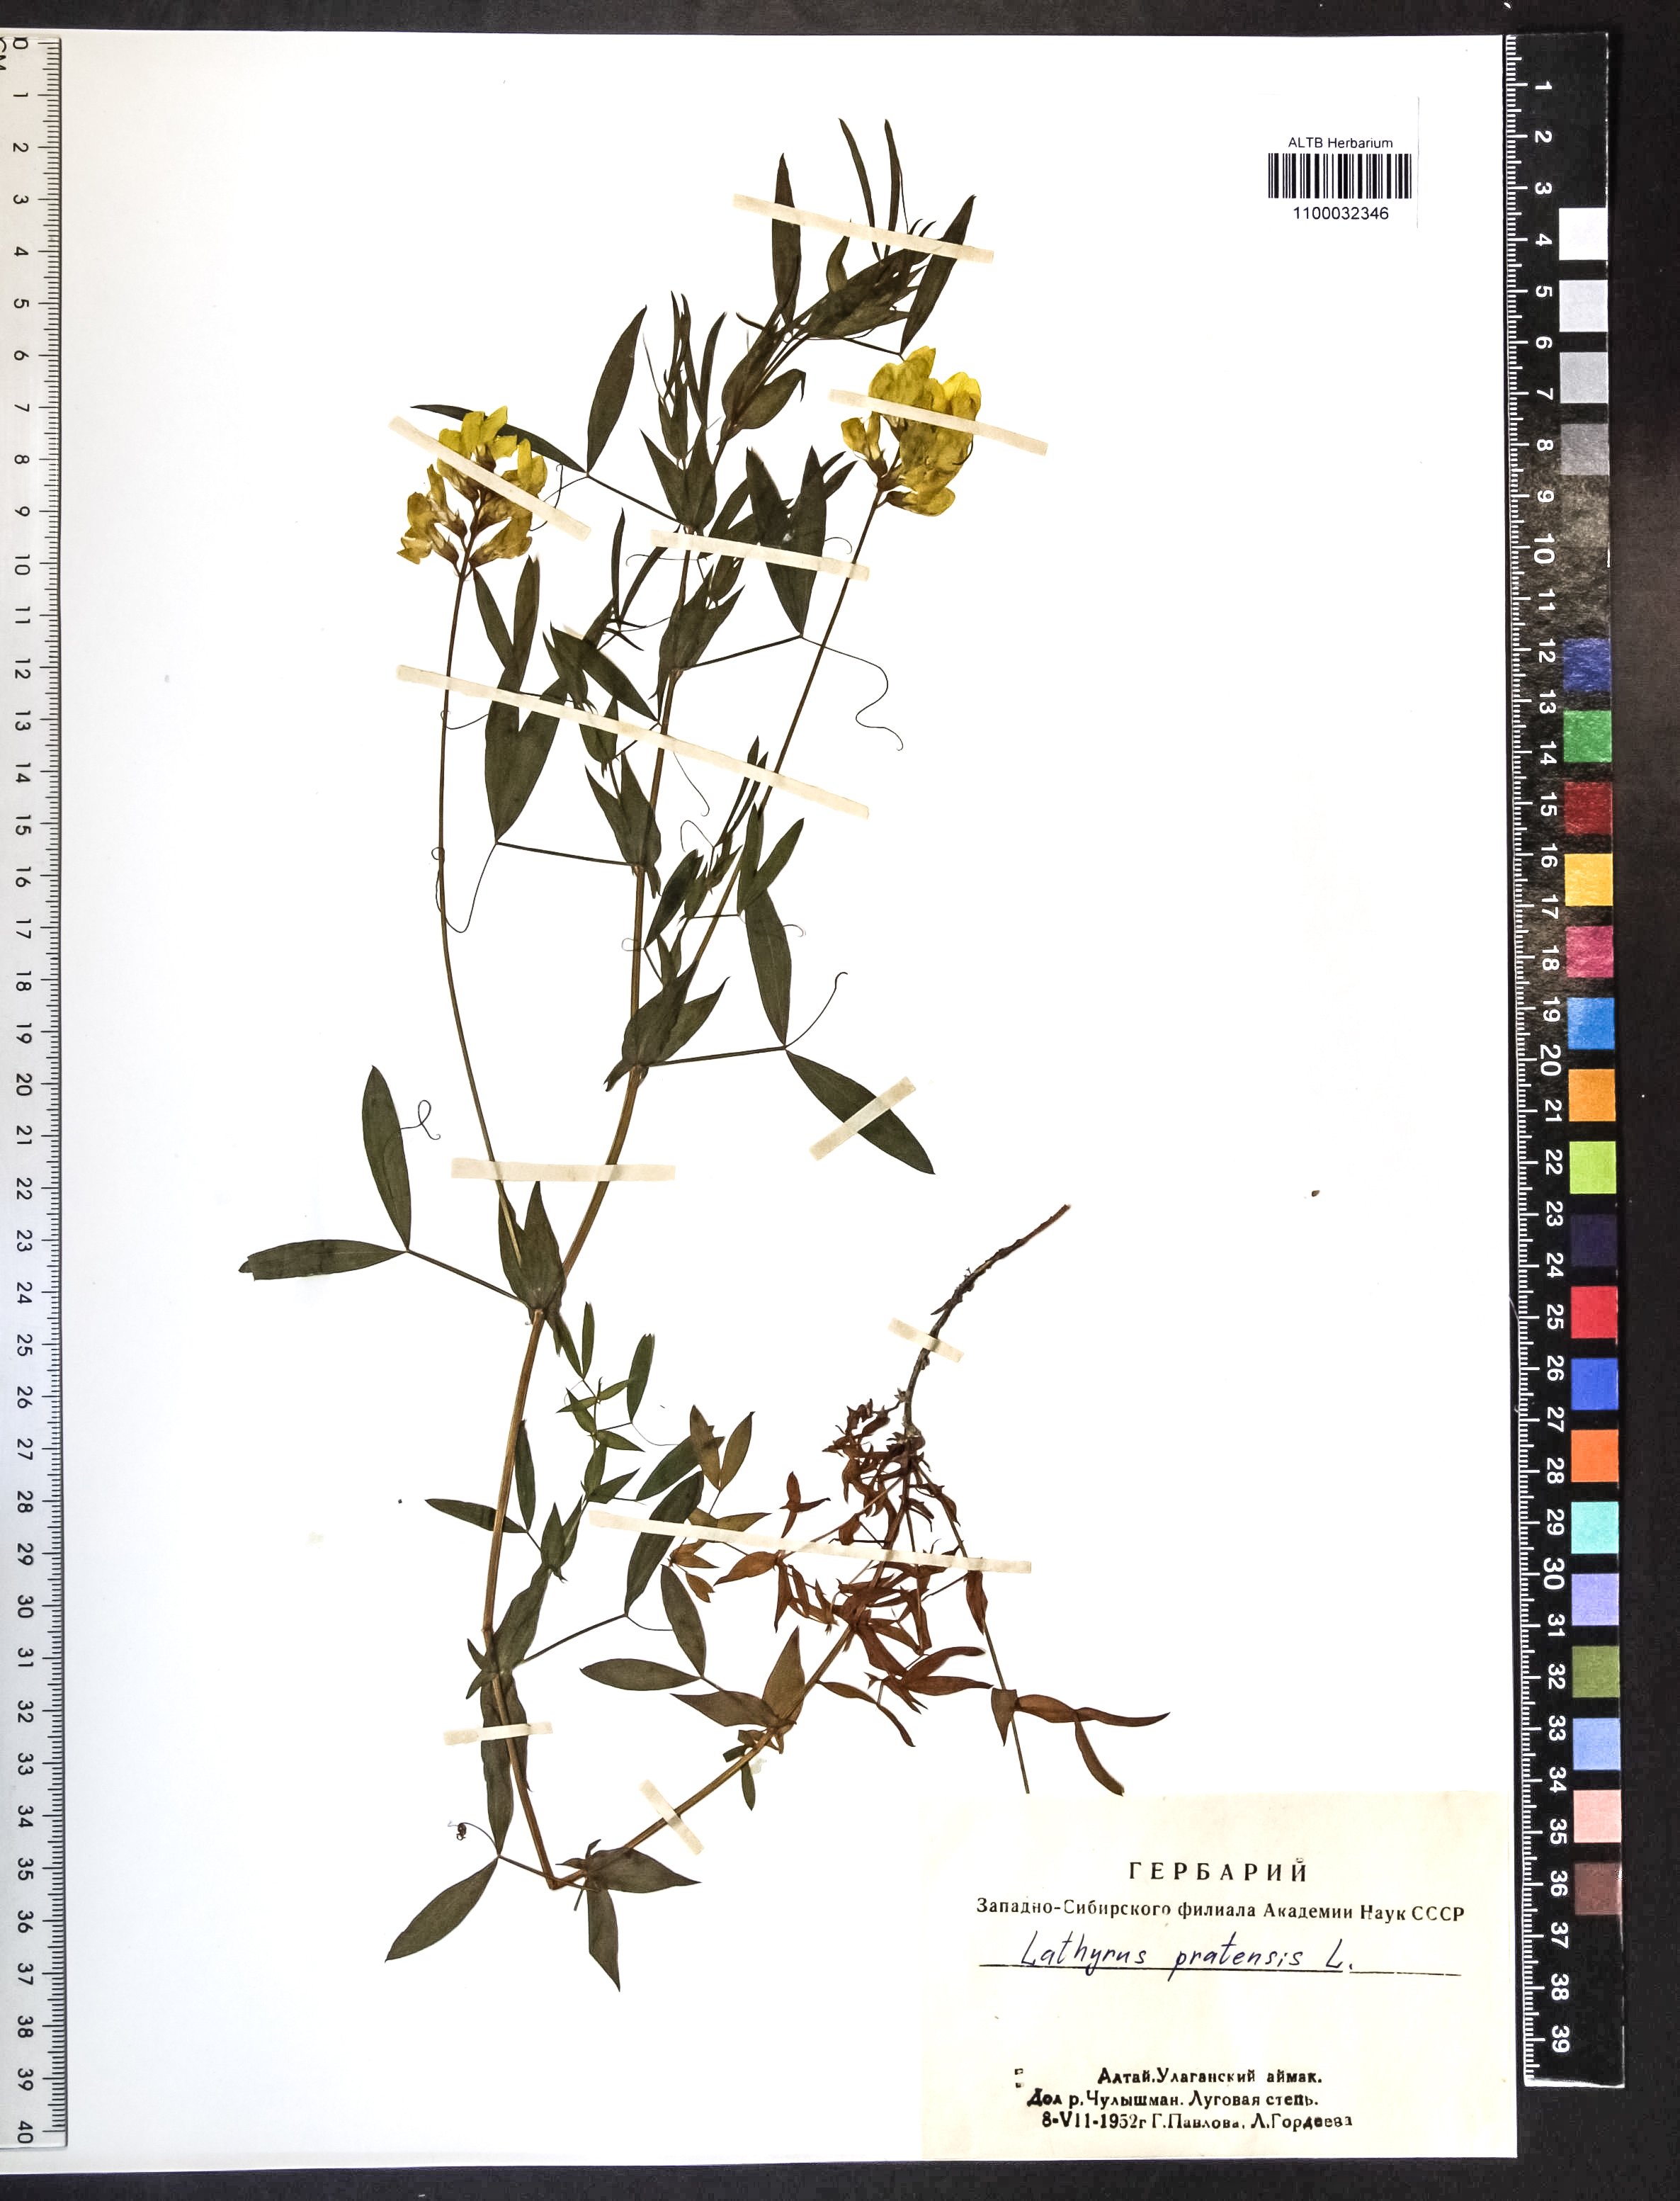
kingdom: Plantae
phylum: Tracheophyta
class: Magnoliopsida
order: Fabales
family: Fabaceae
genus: Lathyrus
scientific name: Lathyrus pratensis
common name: Meadow vetchling
